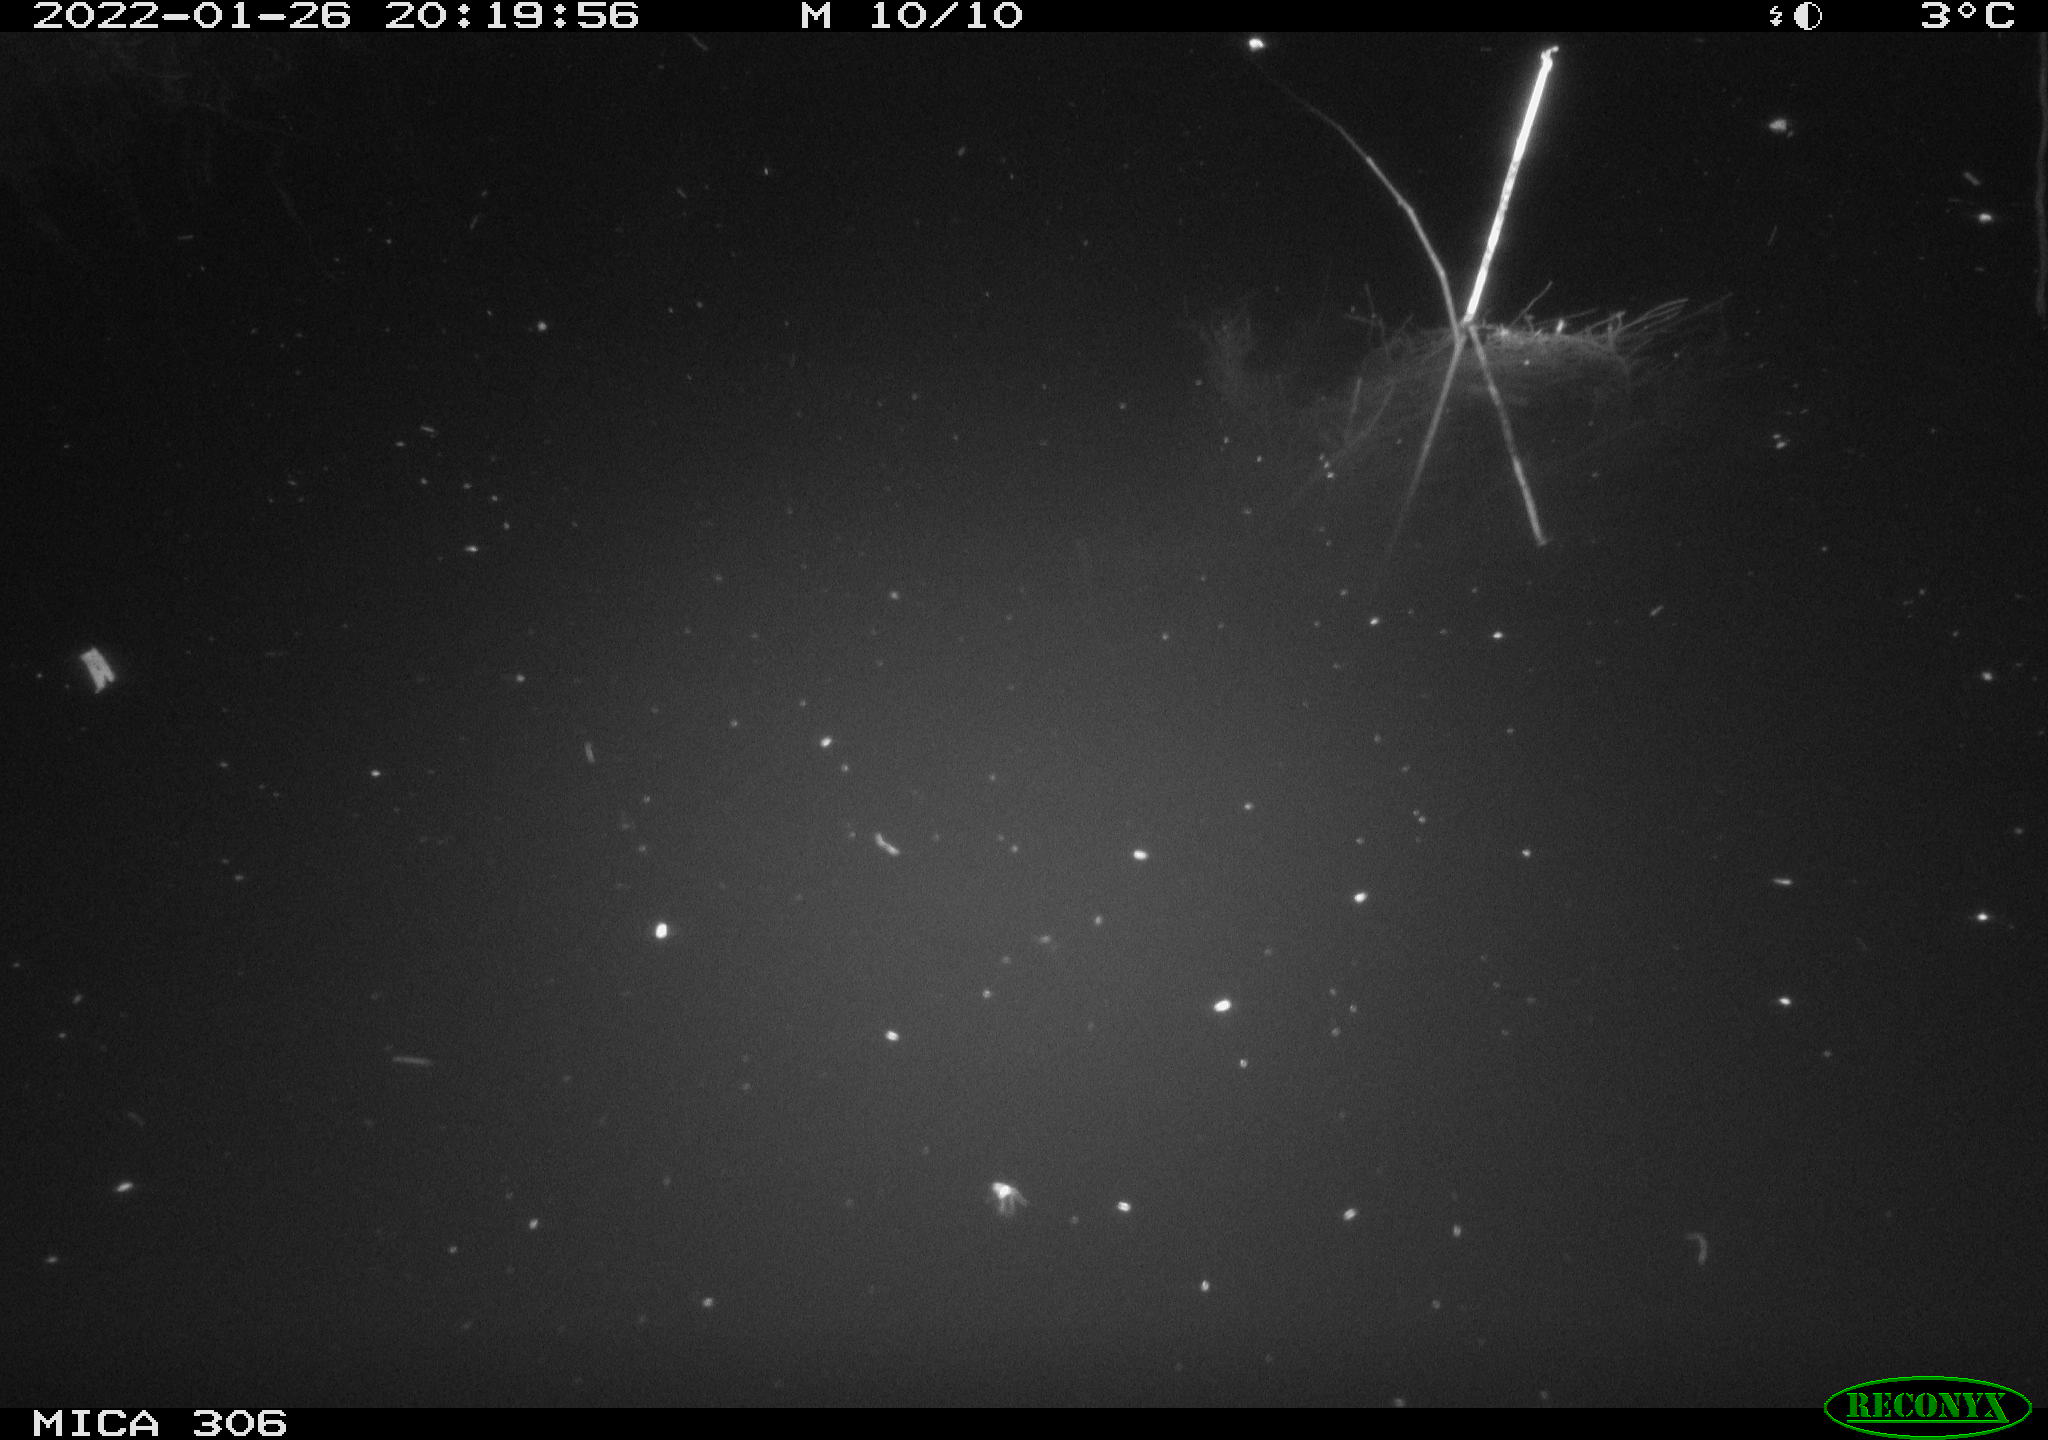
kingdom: Animalia
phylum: Chordata
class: Mammalia
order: Rodentia
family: Cricetidae
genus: Ondatra
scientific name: Ondatra zibethicus
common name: Muskrat
